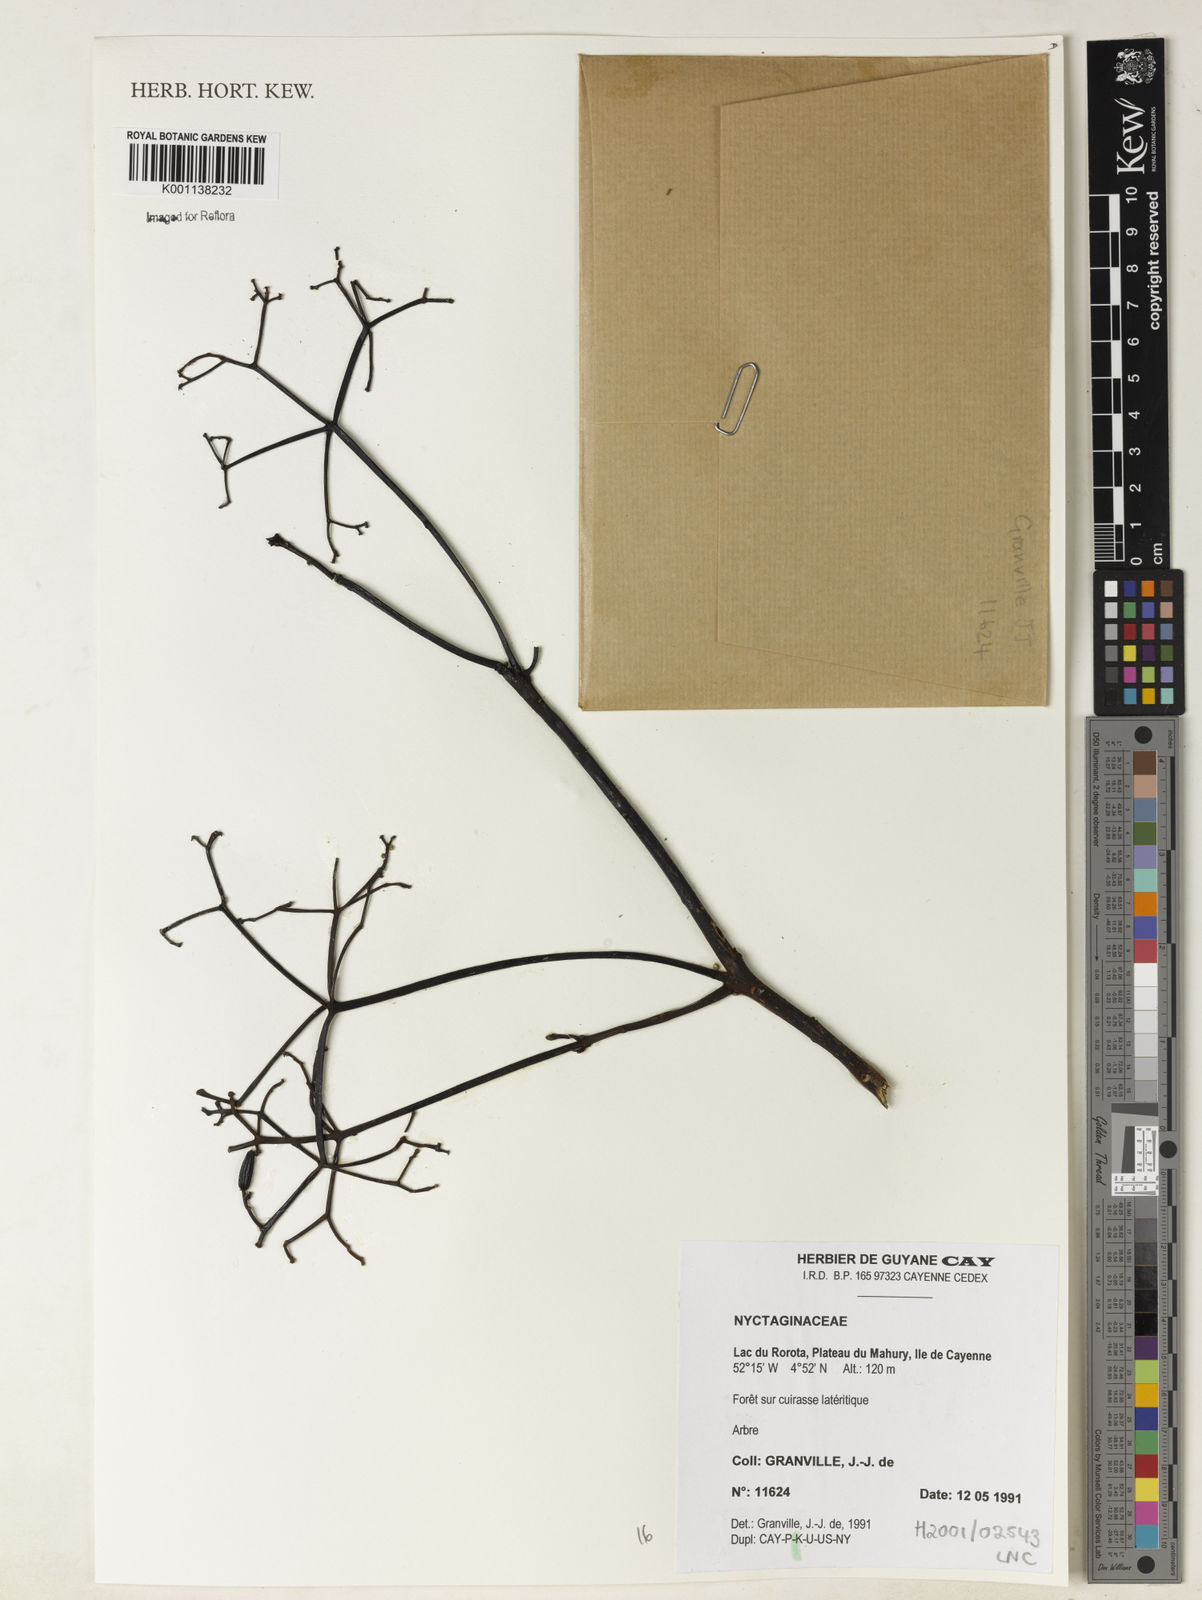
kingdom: Plantae
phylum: Tracheophyta
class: Magnoliopsida
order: Caryophyllales
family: Nyctaginaceae
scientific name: Nyctaginaceae
